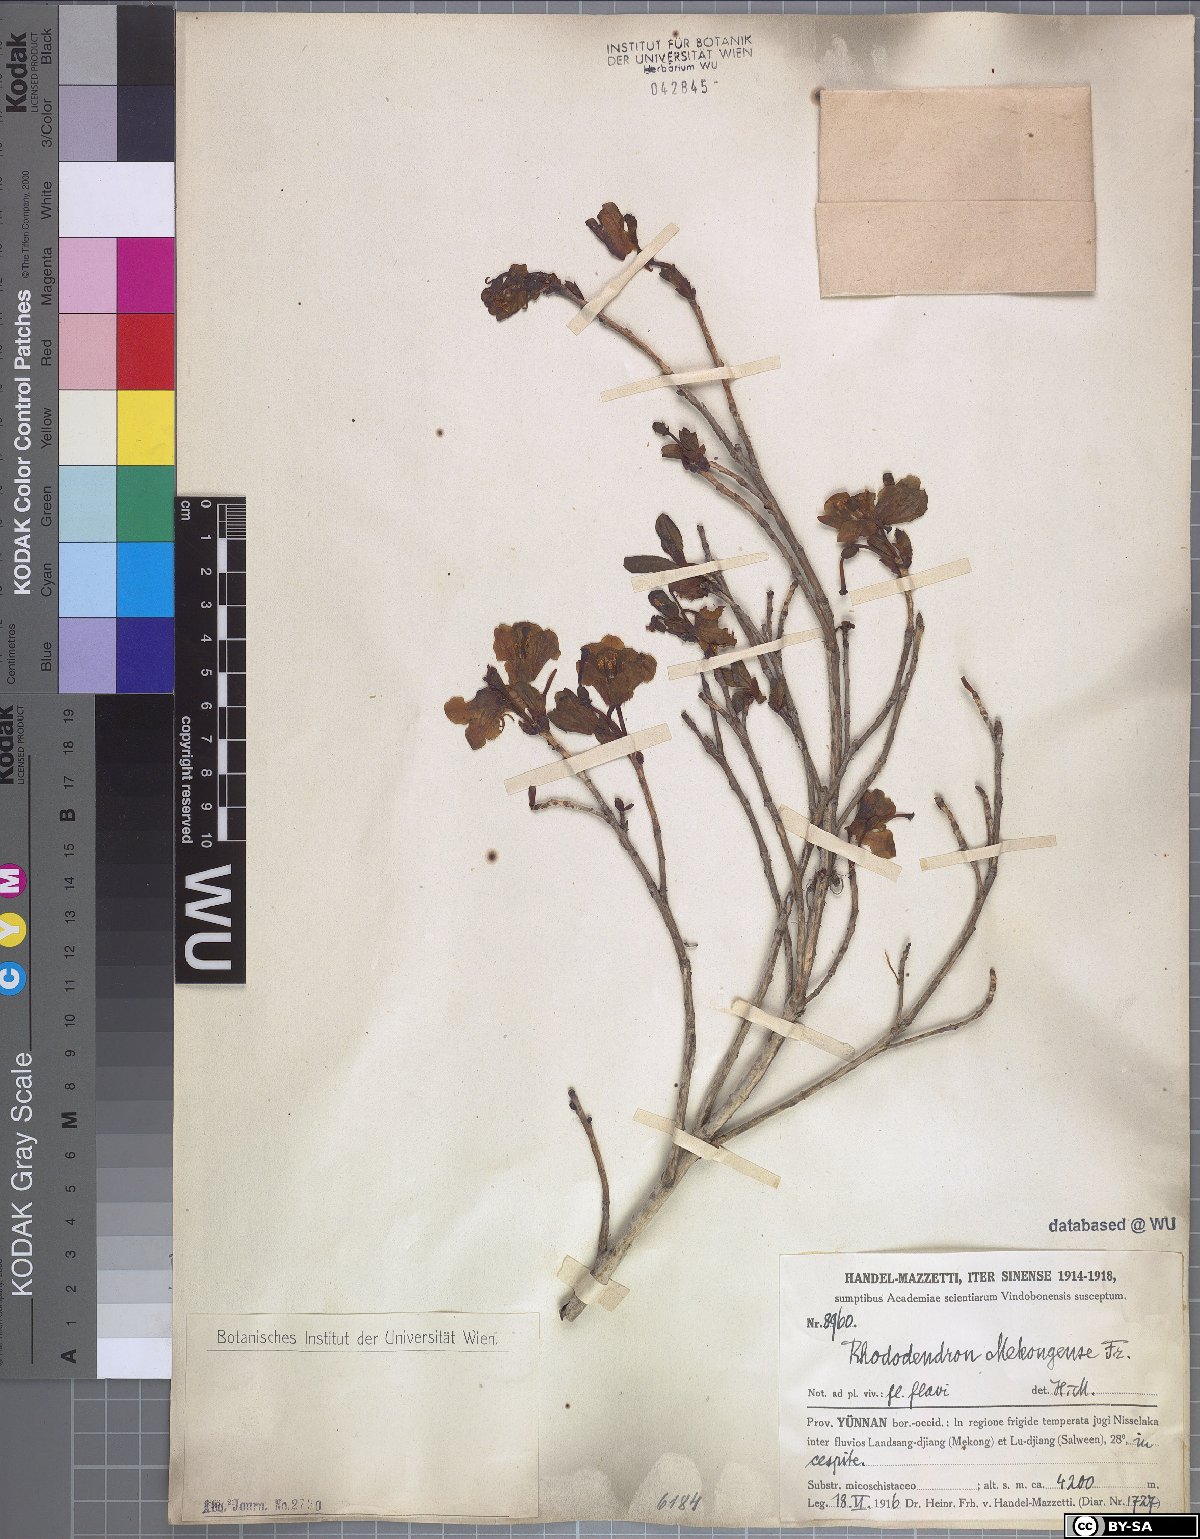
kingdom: Plantae
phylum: Tracheophyta
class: Magnoliopsida
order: Ericales
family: Ericaceae
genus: Rhododendron
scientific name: Rhododendron mekongense
